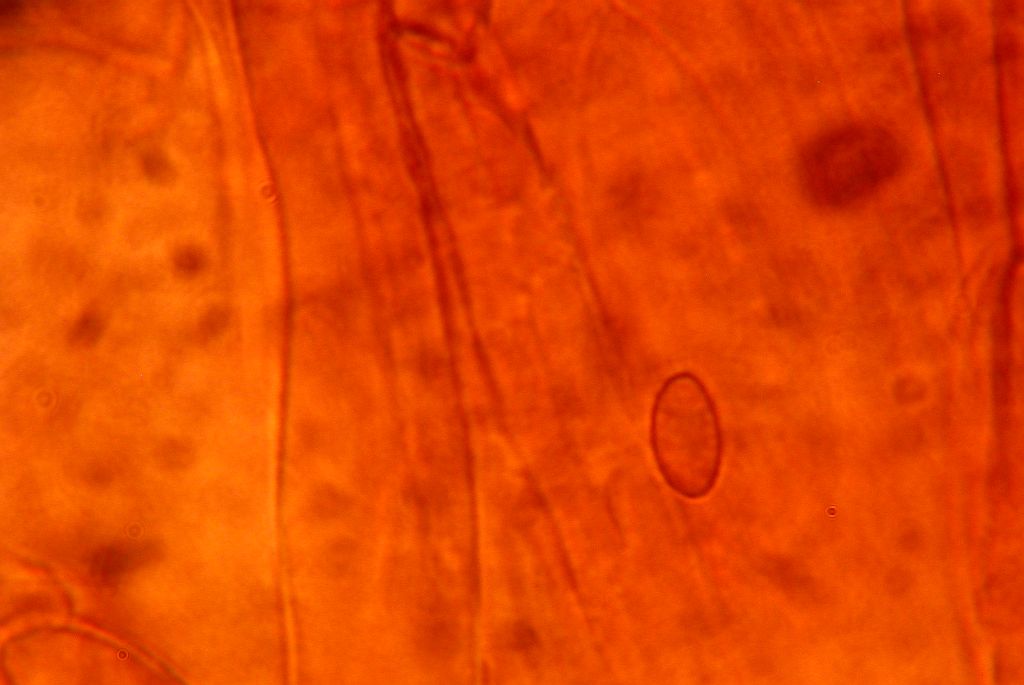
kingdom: Fungi
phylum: Basidiomycota
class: Agaricomycetes
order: Agaricales
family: Cortinariaceae
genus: Cortinarius
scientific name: Cortinarius
